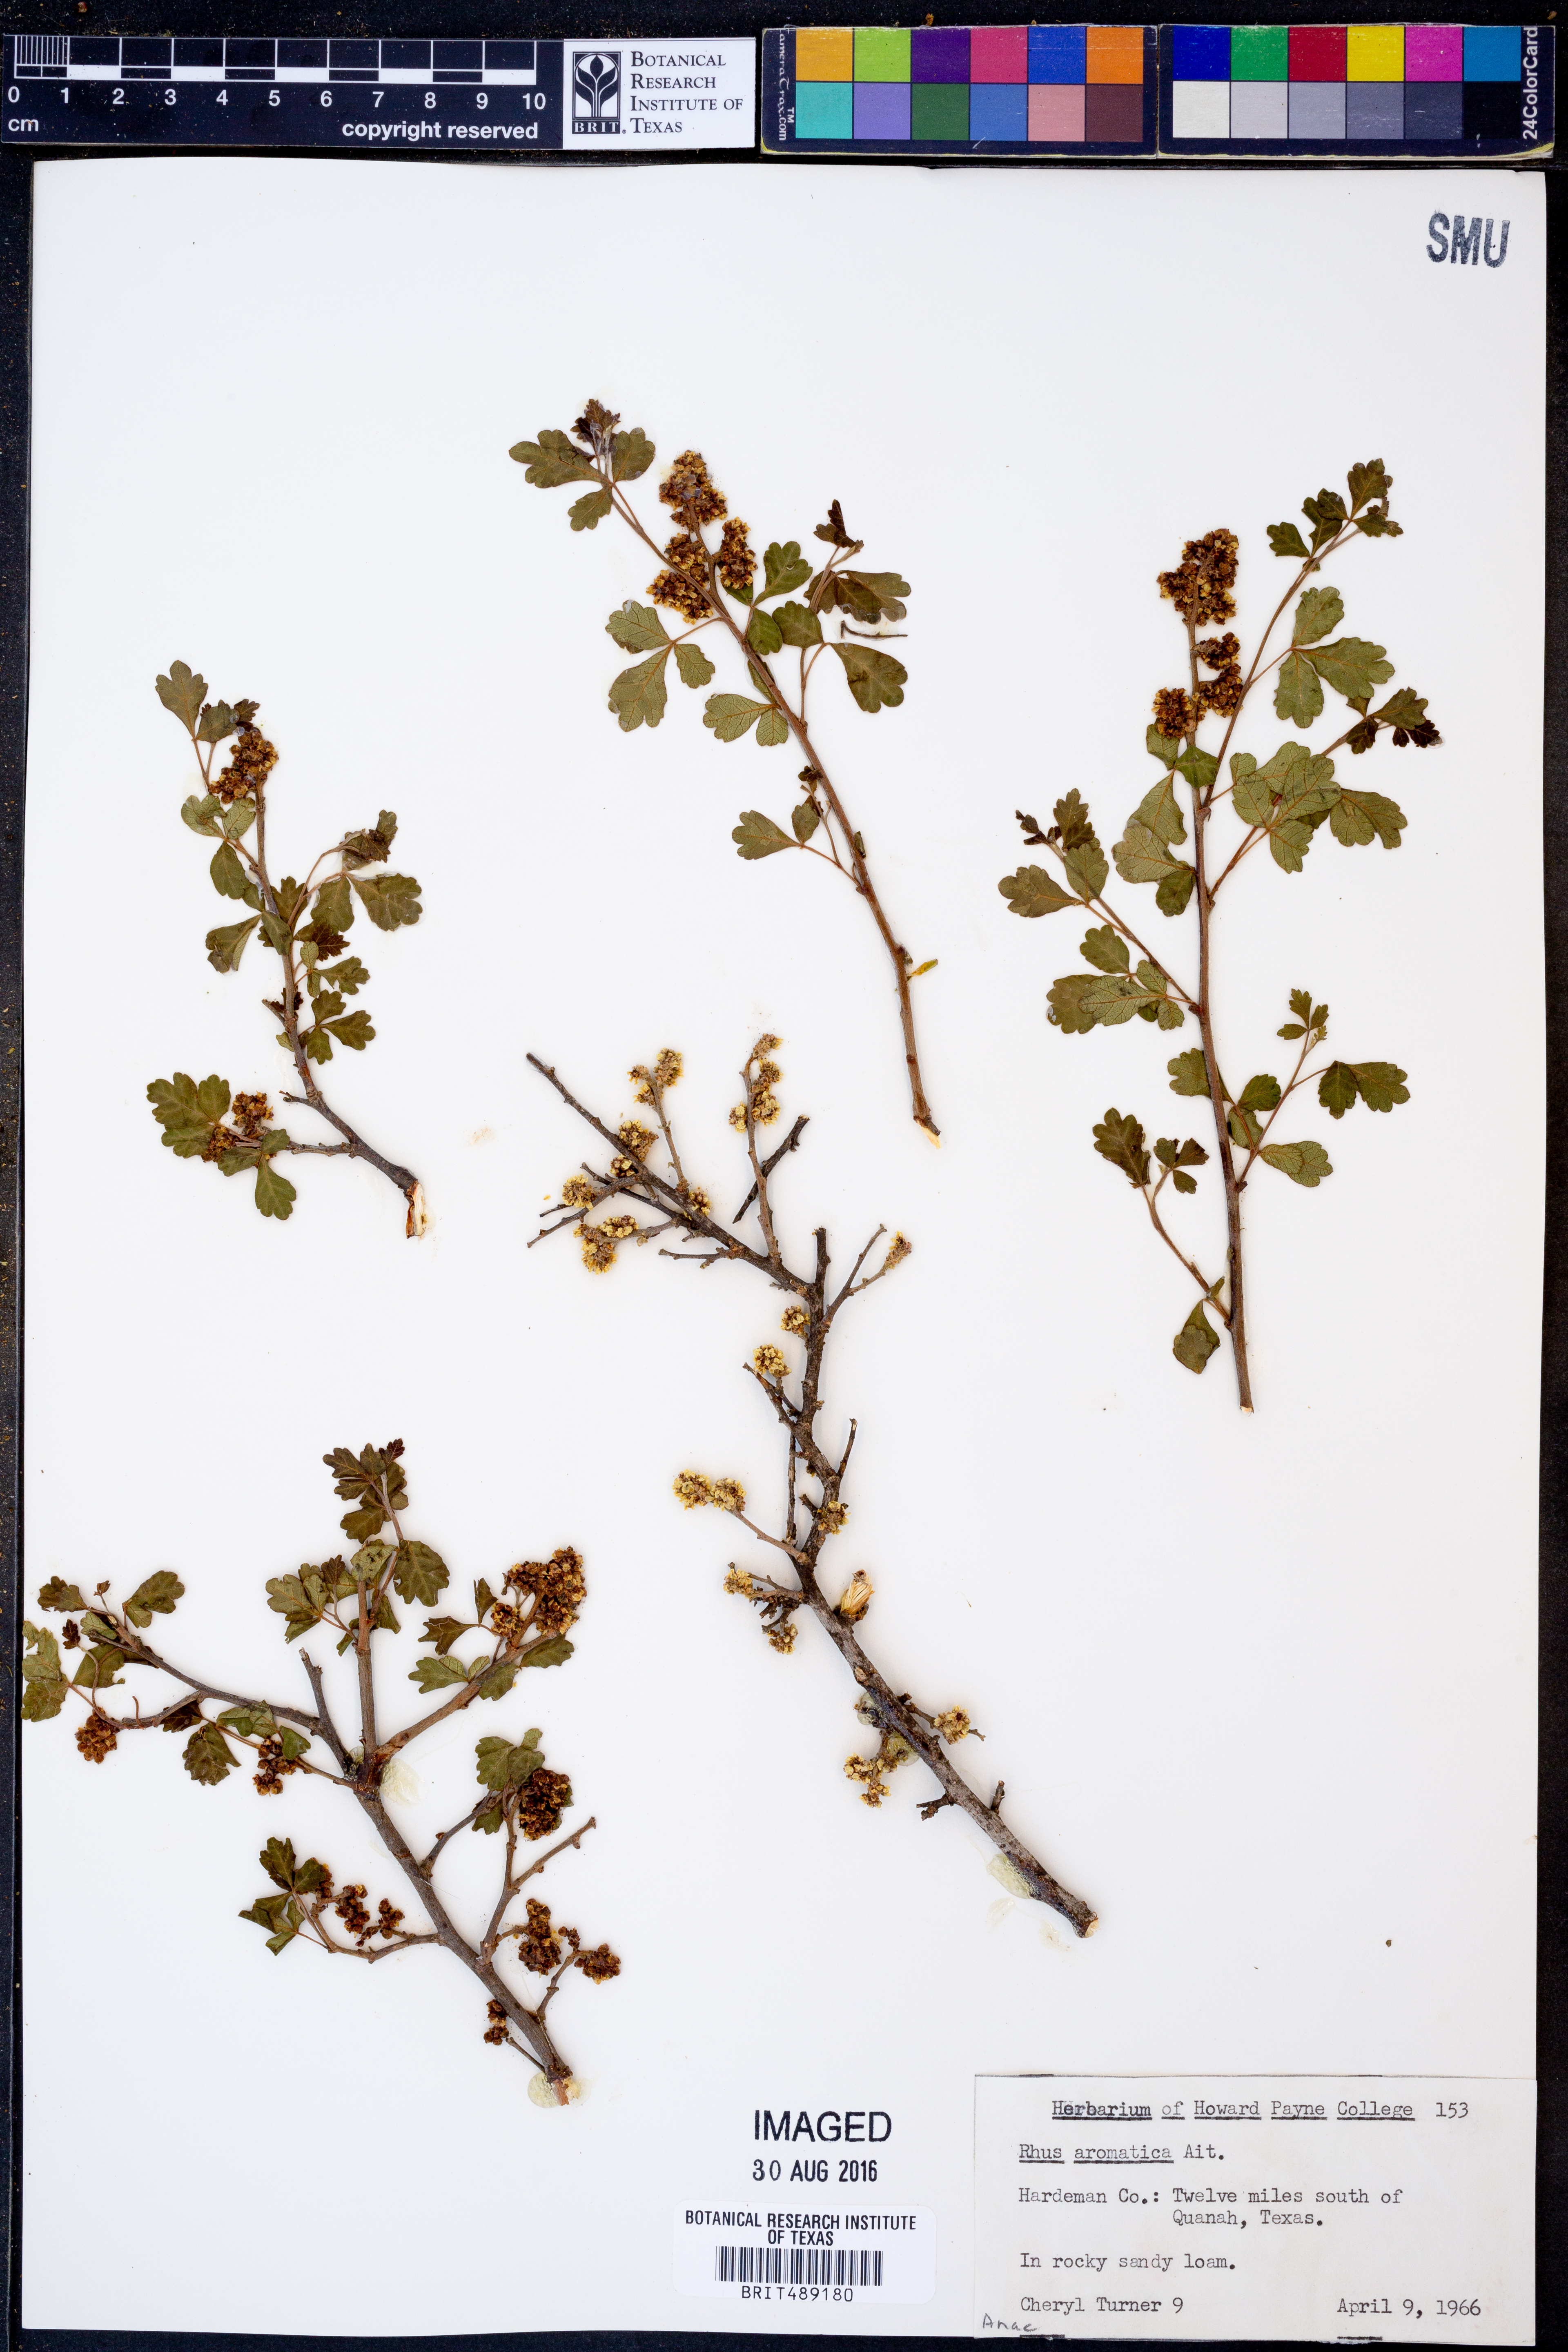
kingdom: Plantae
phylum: Tracheophyta
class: Magnoliopsida
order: Sapindales
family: Anacardiaceae
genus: Rhus
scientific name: Rhus aromatica
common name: Aromatic sumac
